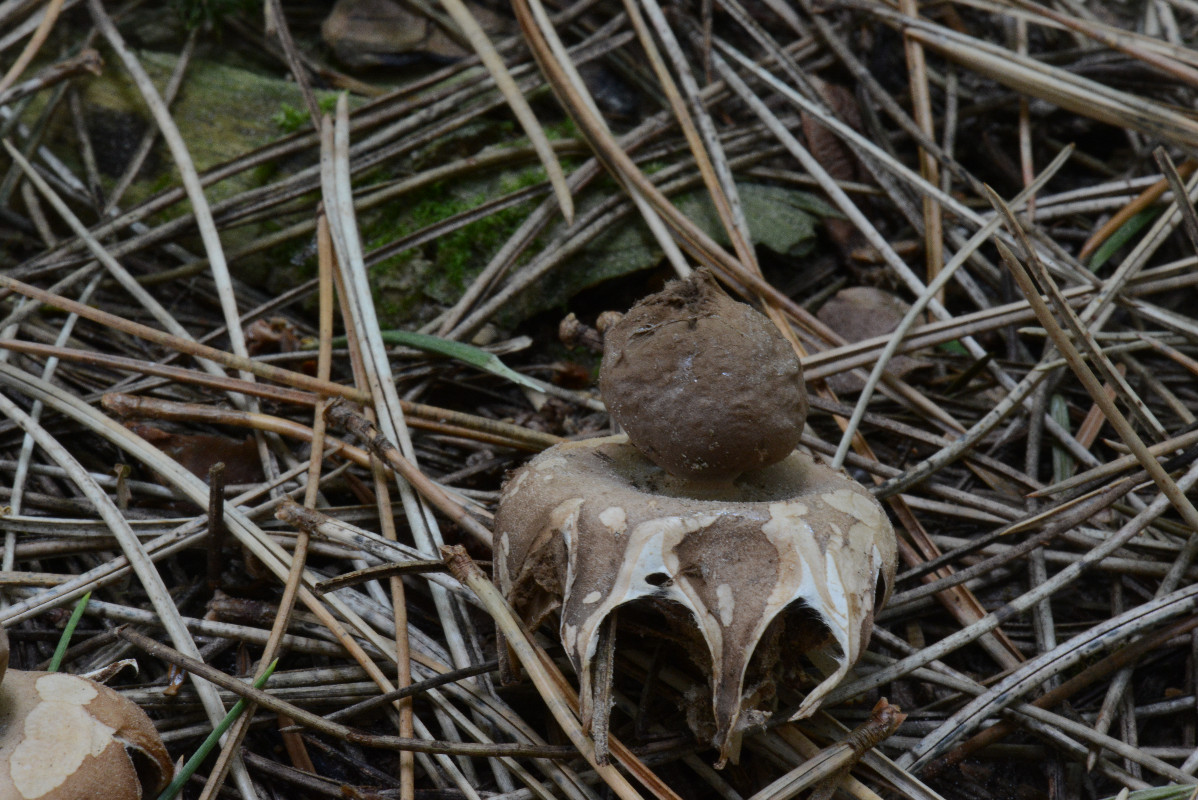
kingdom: Fungi
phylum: Basidiomycota
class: Agaricomycetes
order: Geastrales
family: Geastraceae
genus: Geastrum
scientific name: Geastrum fimbriatum
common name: frynset stjernebold
